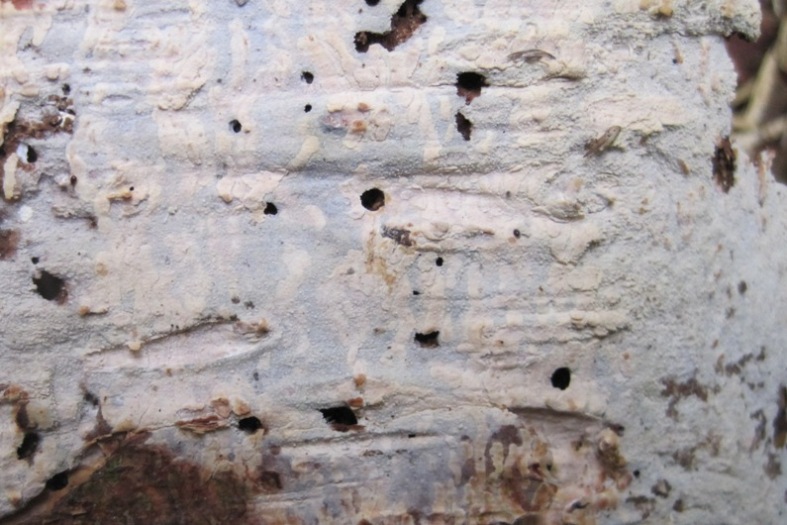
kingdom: Fungi
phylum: Basidiomycota
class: Agaricomycetes
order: Hymenochaetales
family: Rickenellaceae
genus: Resinicium
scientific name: Resinicium bicolor
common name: almindelig vokstand
